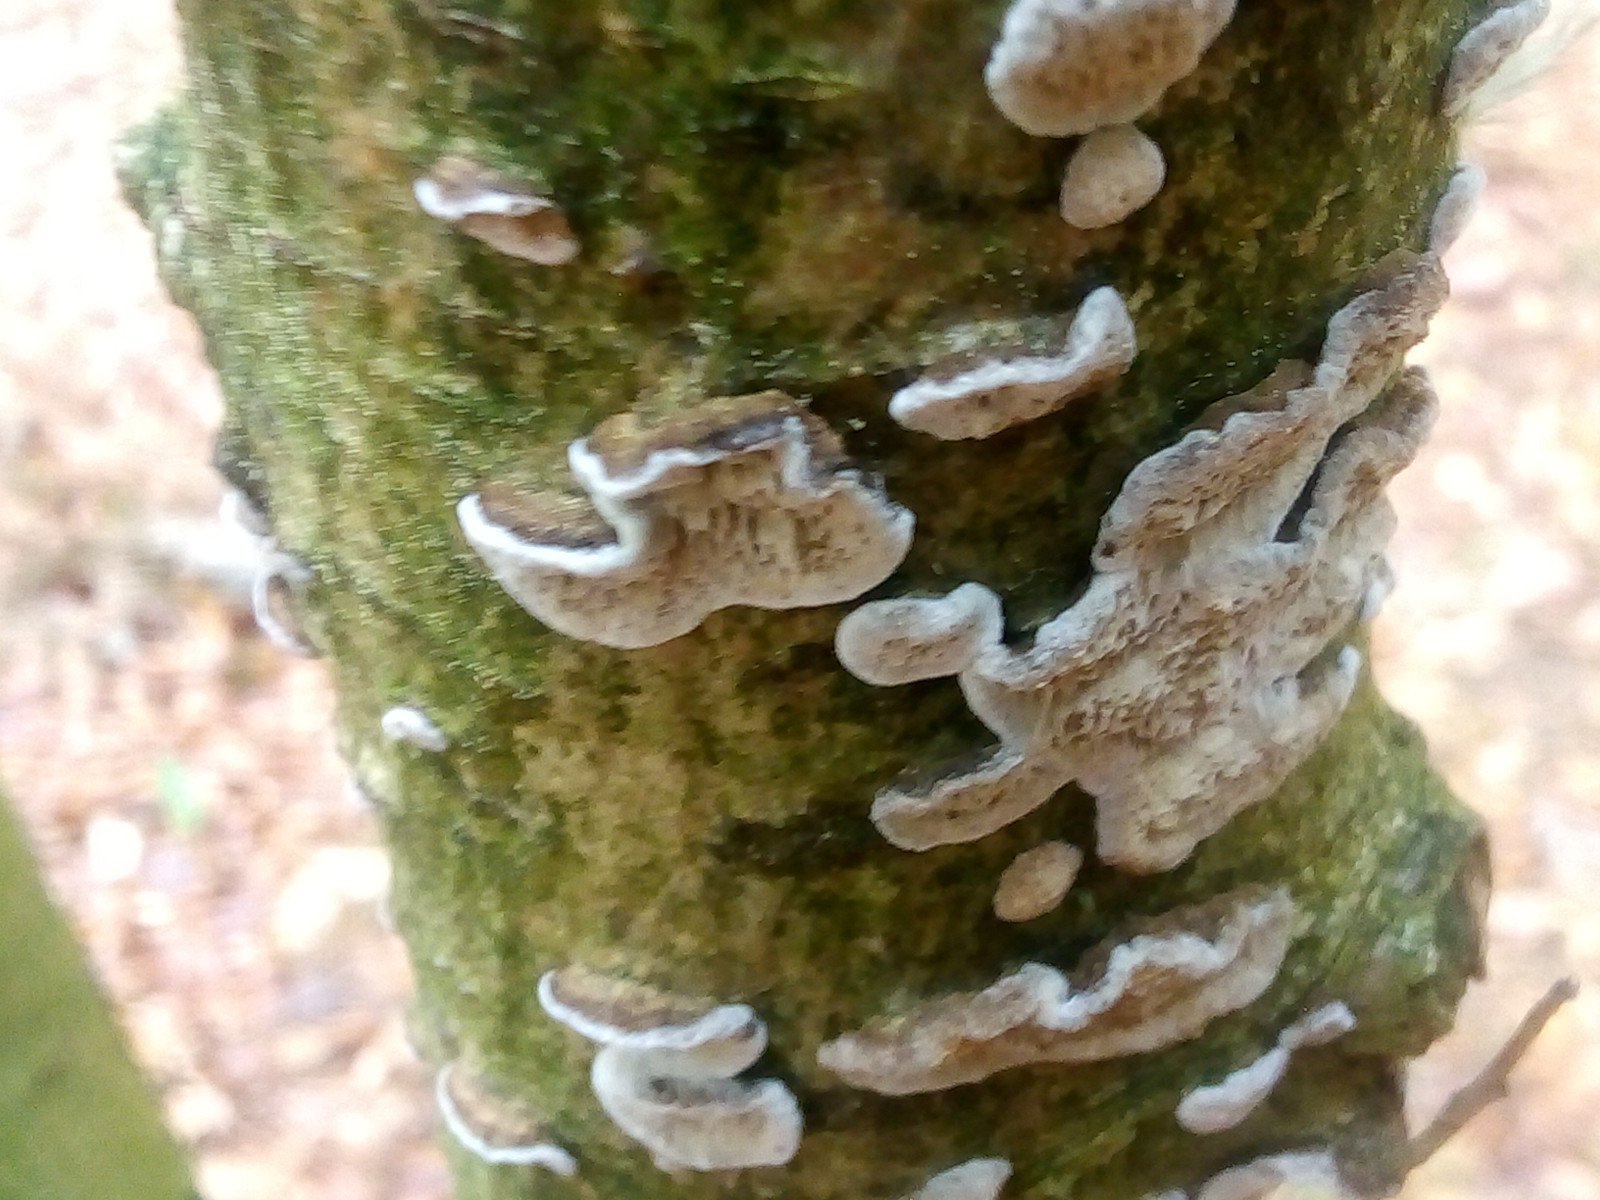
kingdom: Fungi
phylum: Basidiomycota
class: Agaricomycetes
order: Polyporales
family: Polyporaceae
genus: Podofomes
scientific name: Podofomes mollis
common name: blød begporesvamp
